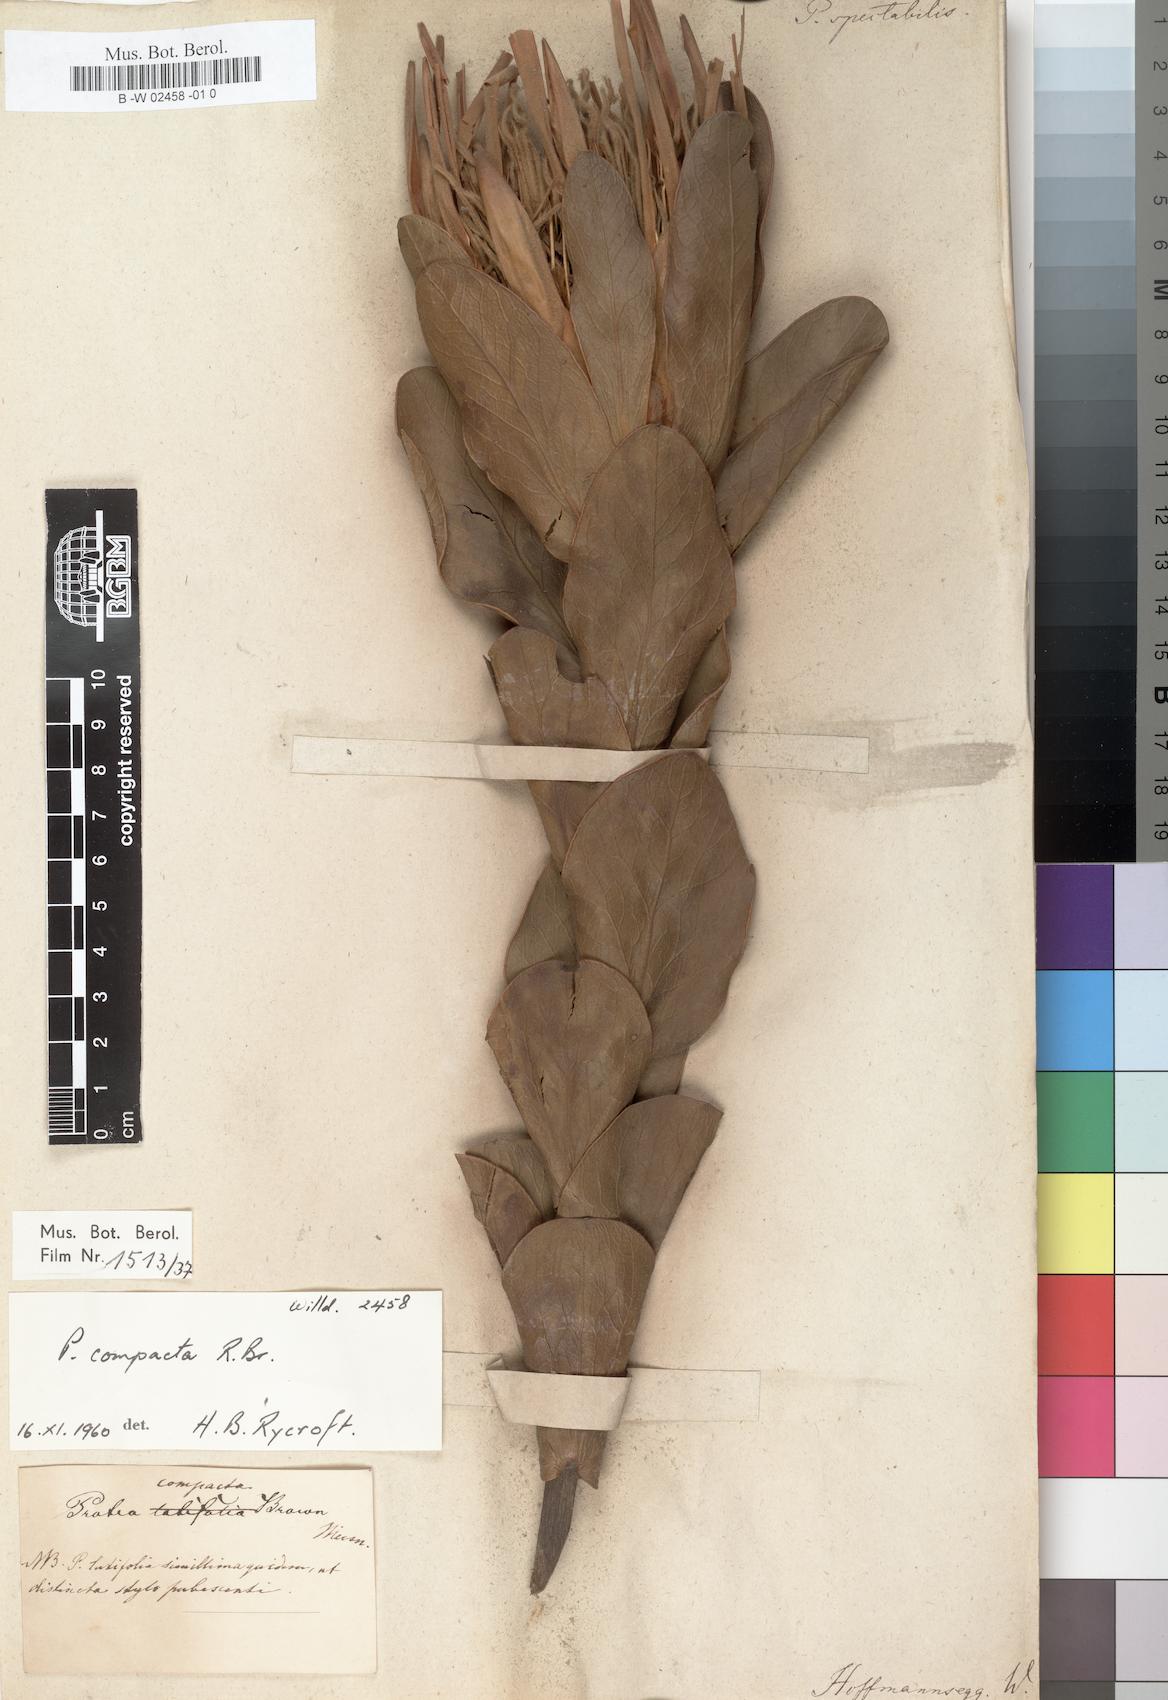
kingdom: Plantae
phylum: Tracheophyta
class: Magnoliopsida
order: Proteales
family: Proteaceae
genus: Protea
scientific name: Protea
